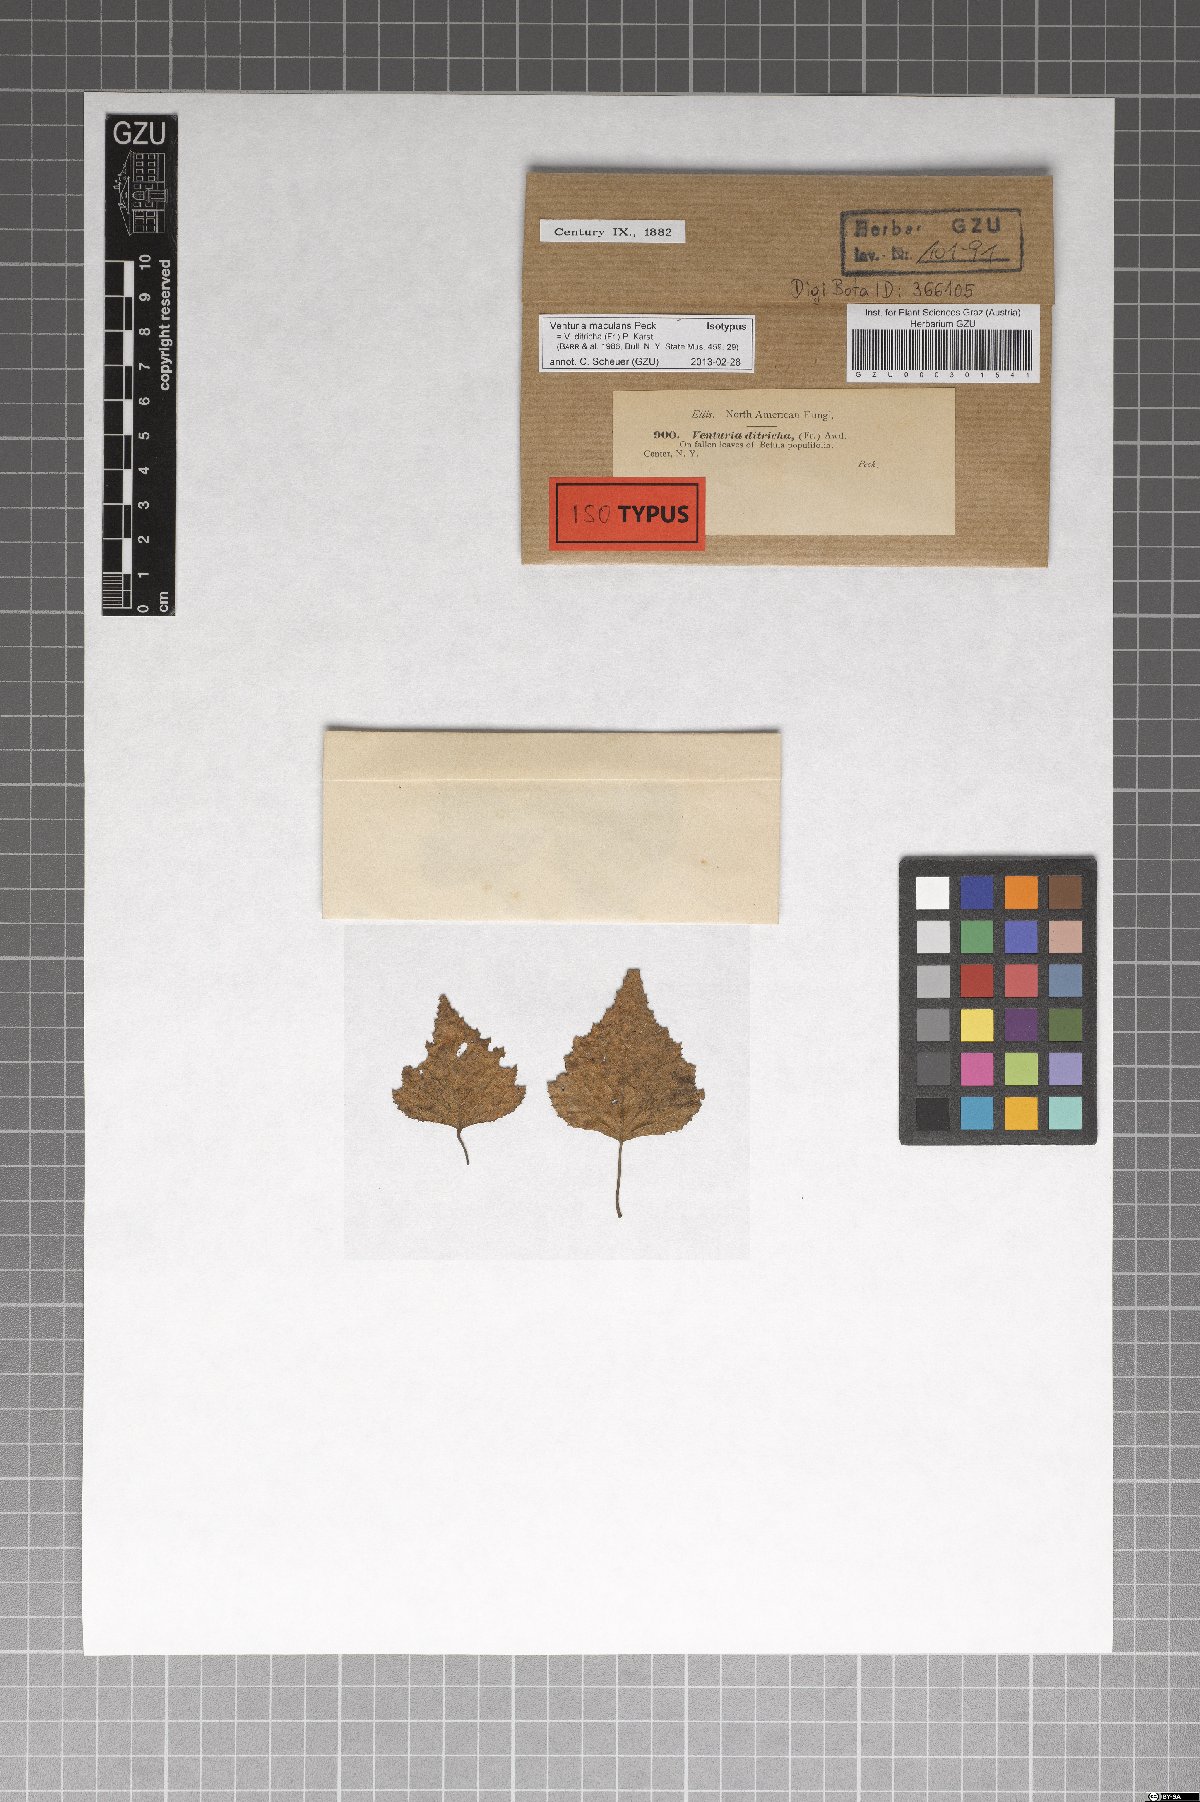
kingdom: Fungi
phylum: Ascomycota
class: Dothideomycetes
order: Venturiales
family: Venturiaceae
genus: Venturia
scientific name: Venturia macularis
